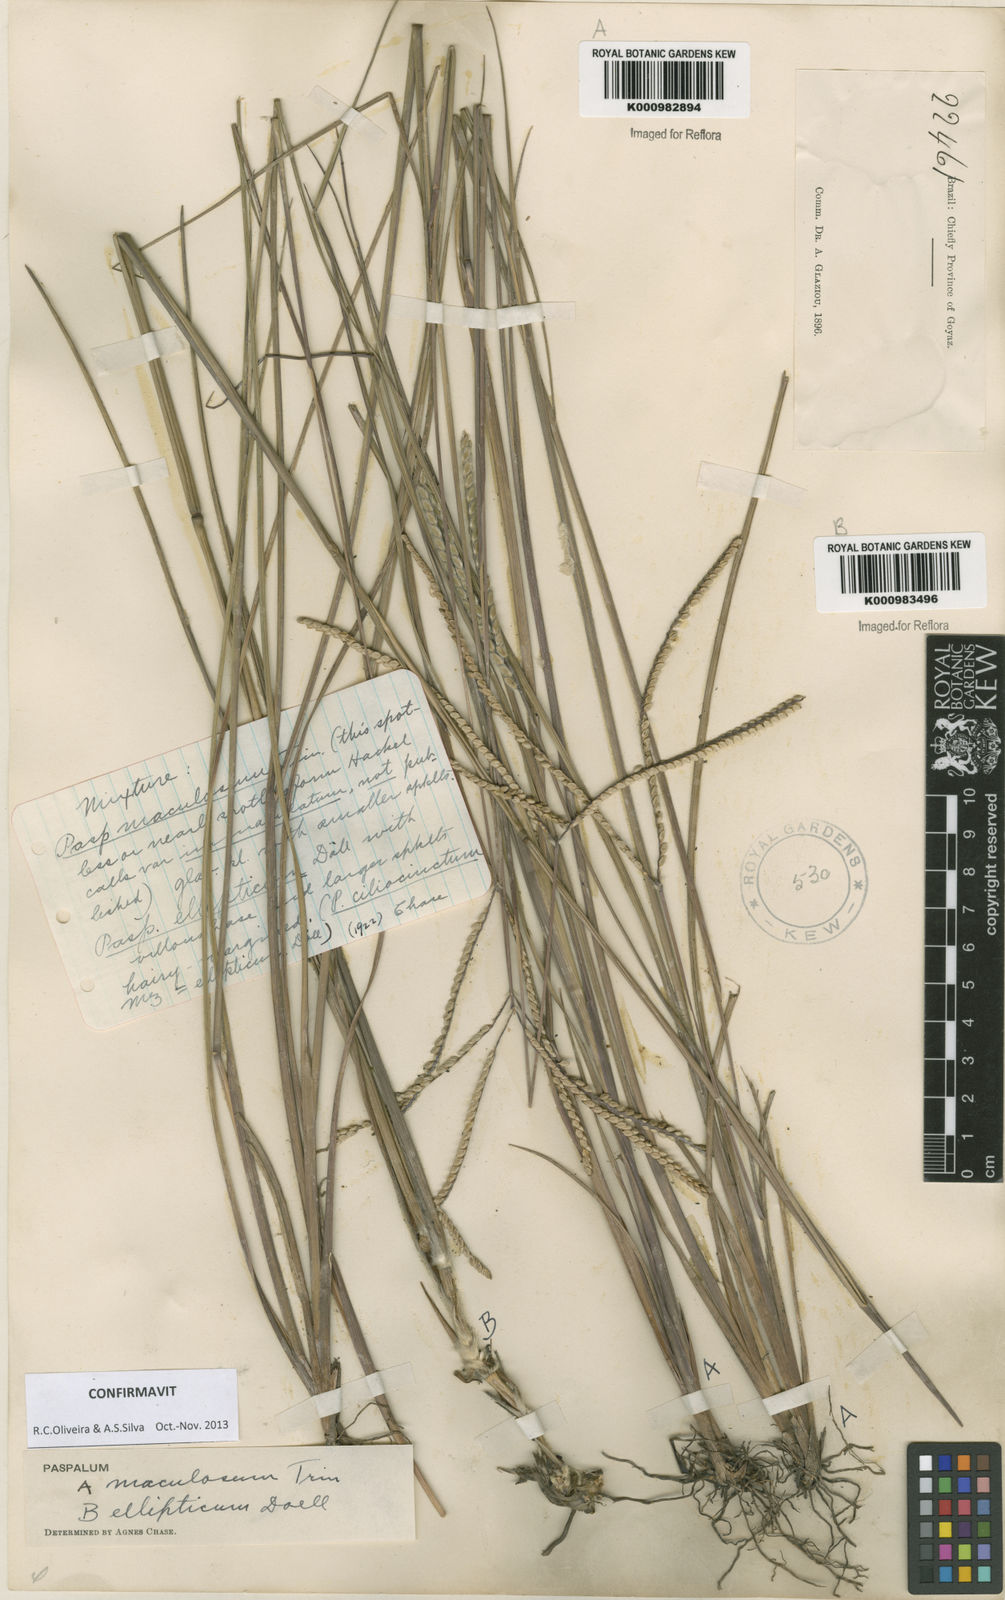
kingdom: Plantae
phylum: Tracheophyta
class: Liliopsida
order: Poales
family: Poaceae
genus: Paspalum
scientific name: Paspalum maculosum
